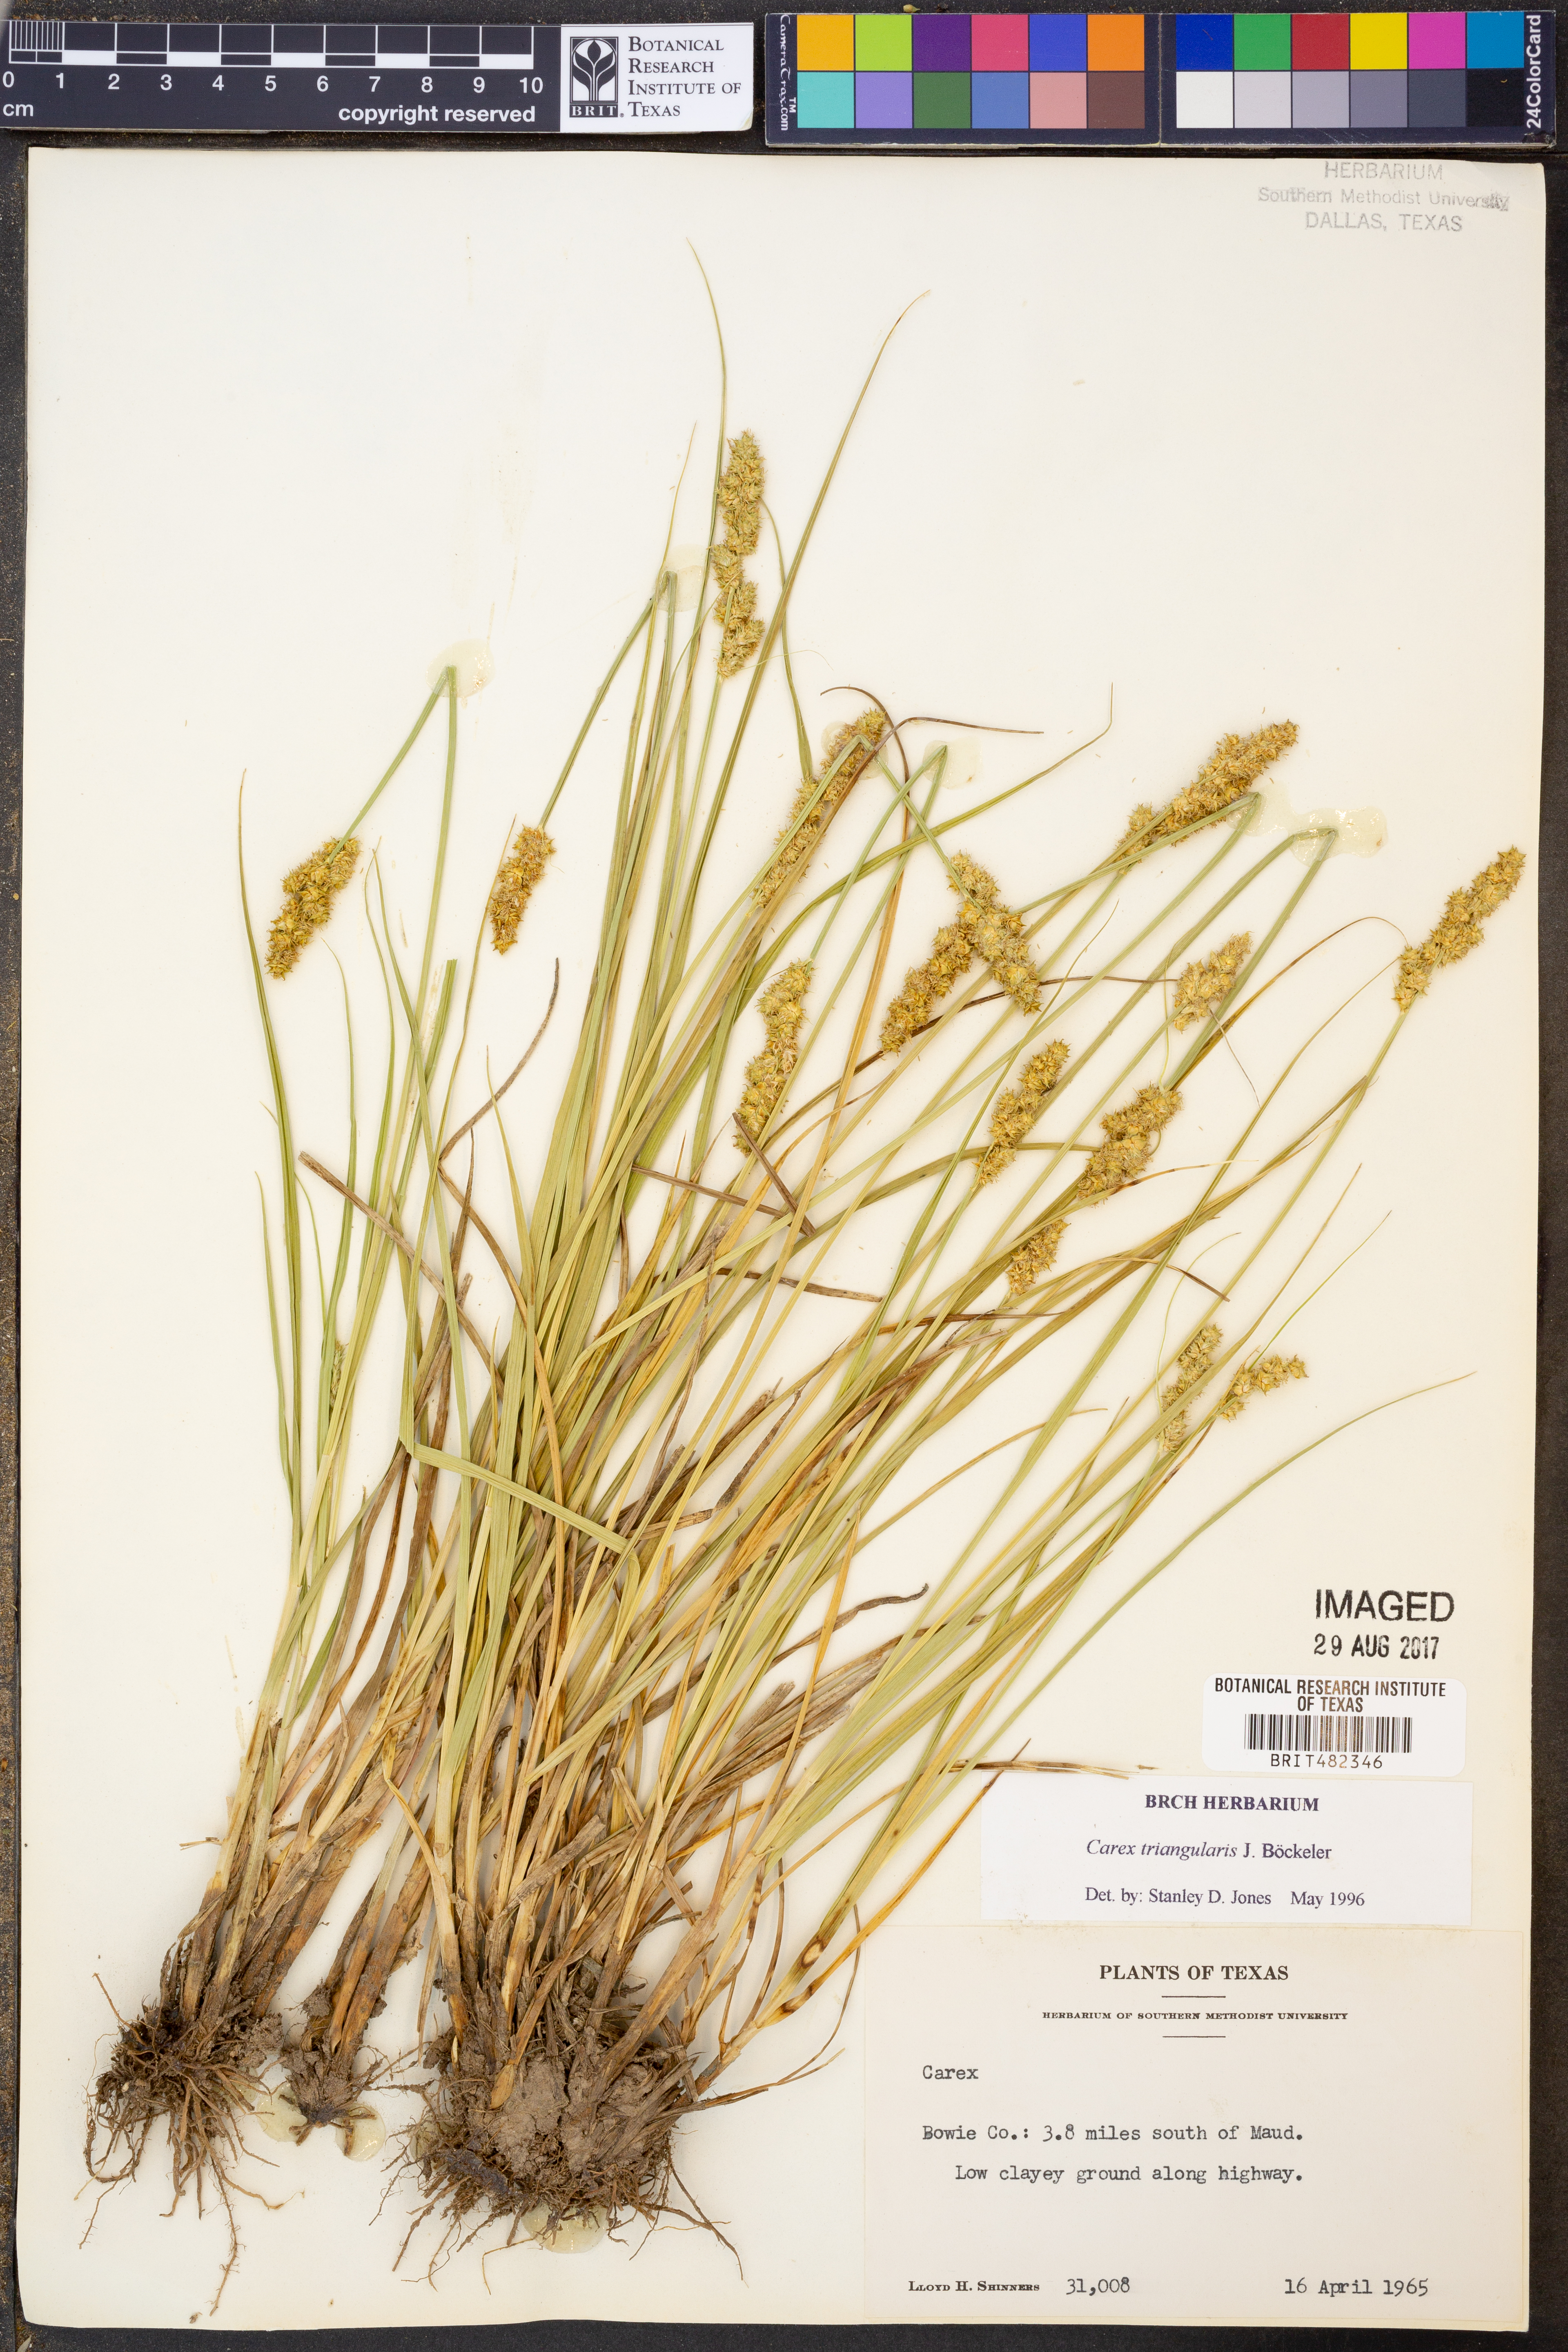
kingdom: Plantae
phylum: Tracheophyta
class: Liliopsida
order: Poales
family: Cyperaceae
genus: Carex
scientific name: Carex triangularis
